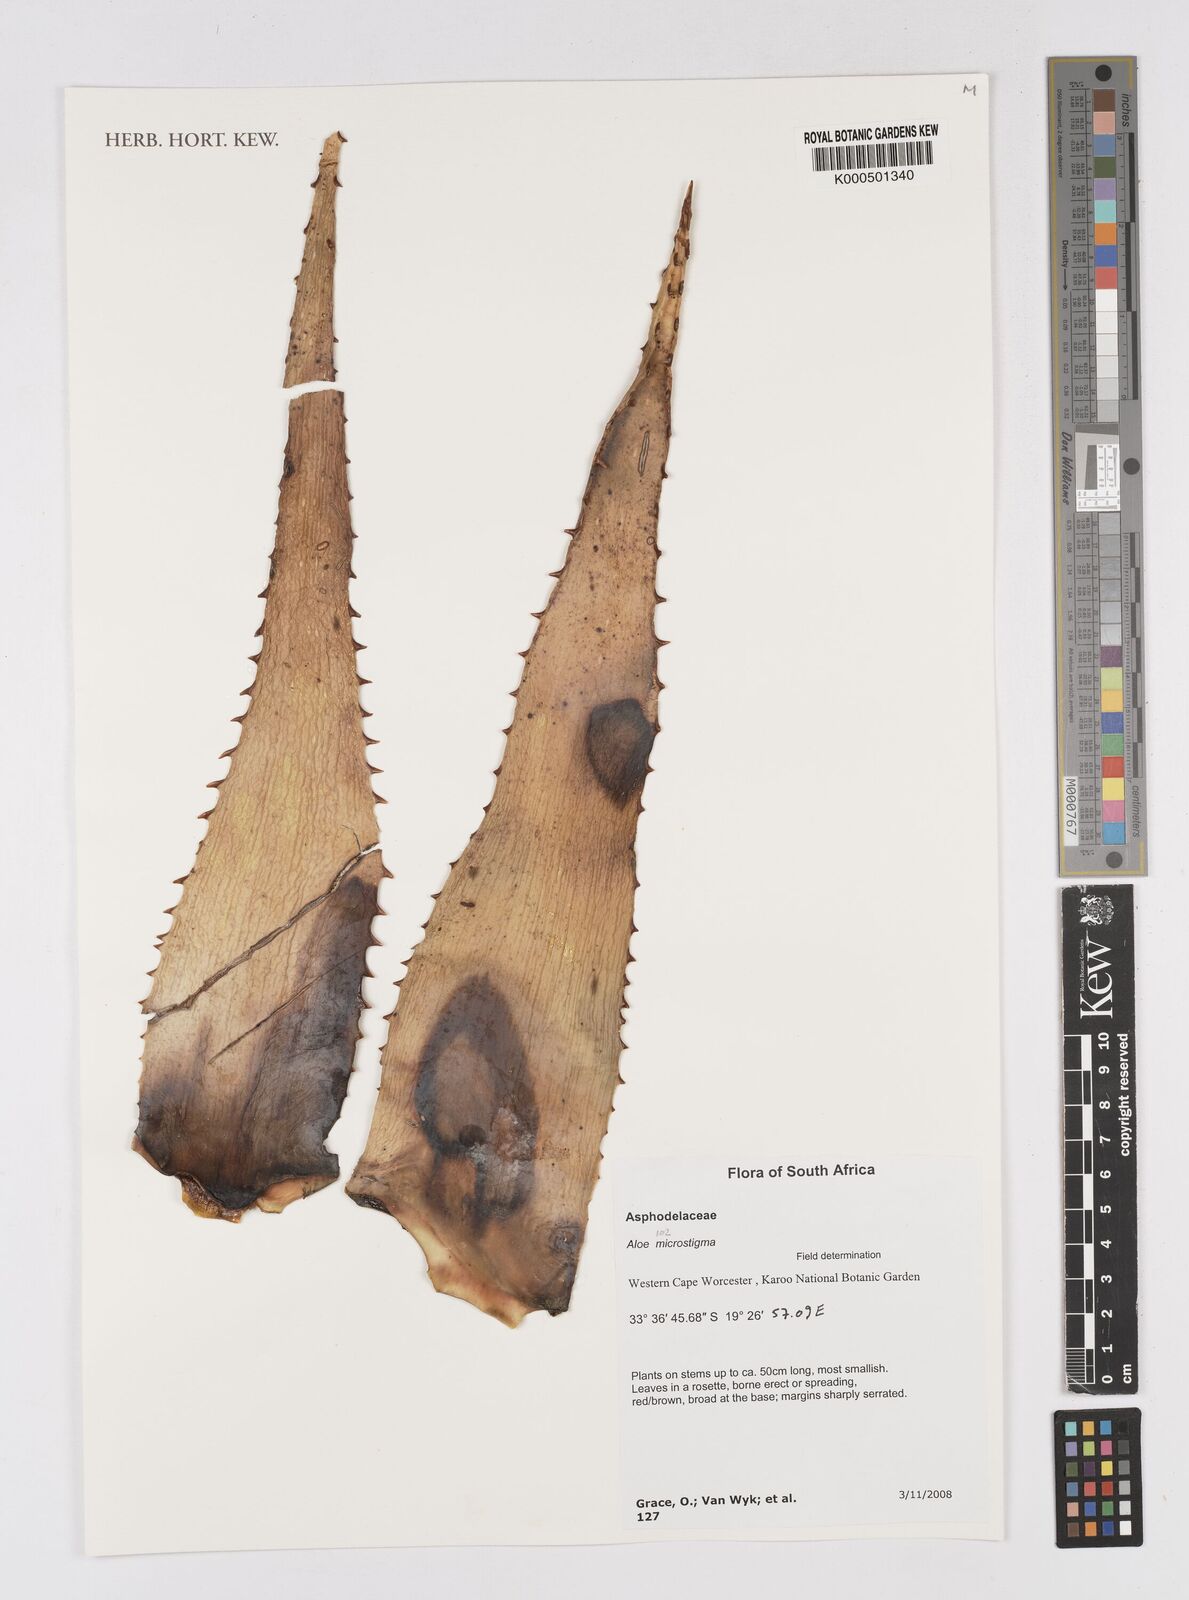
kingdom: Plantae
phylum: Tracheophyta
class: Liliopsida
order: Asparagales
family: Asphodelaceae
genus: Aloe
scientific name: Aloe microstigma
